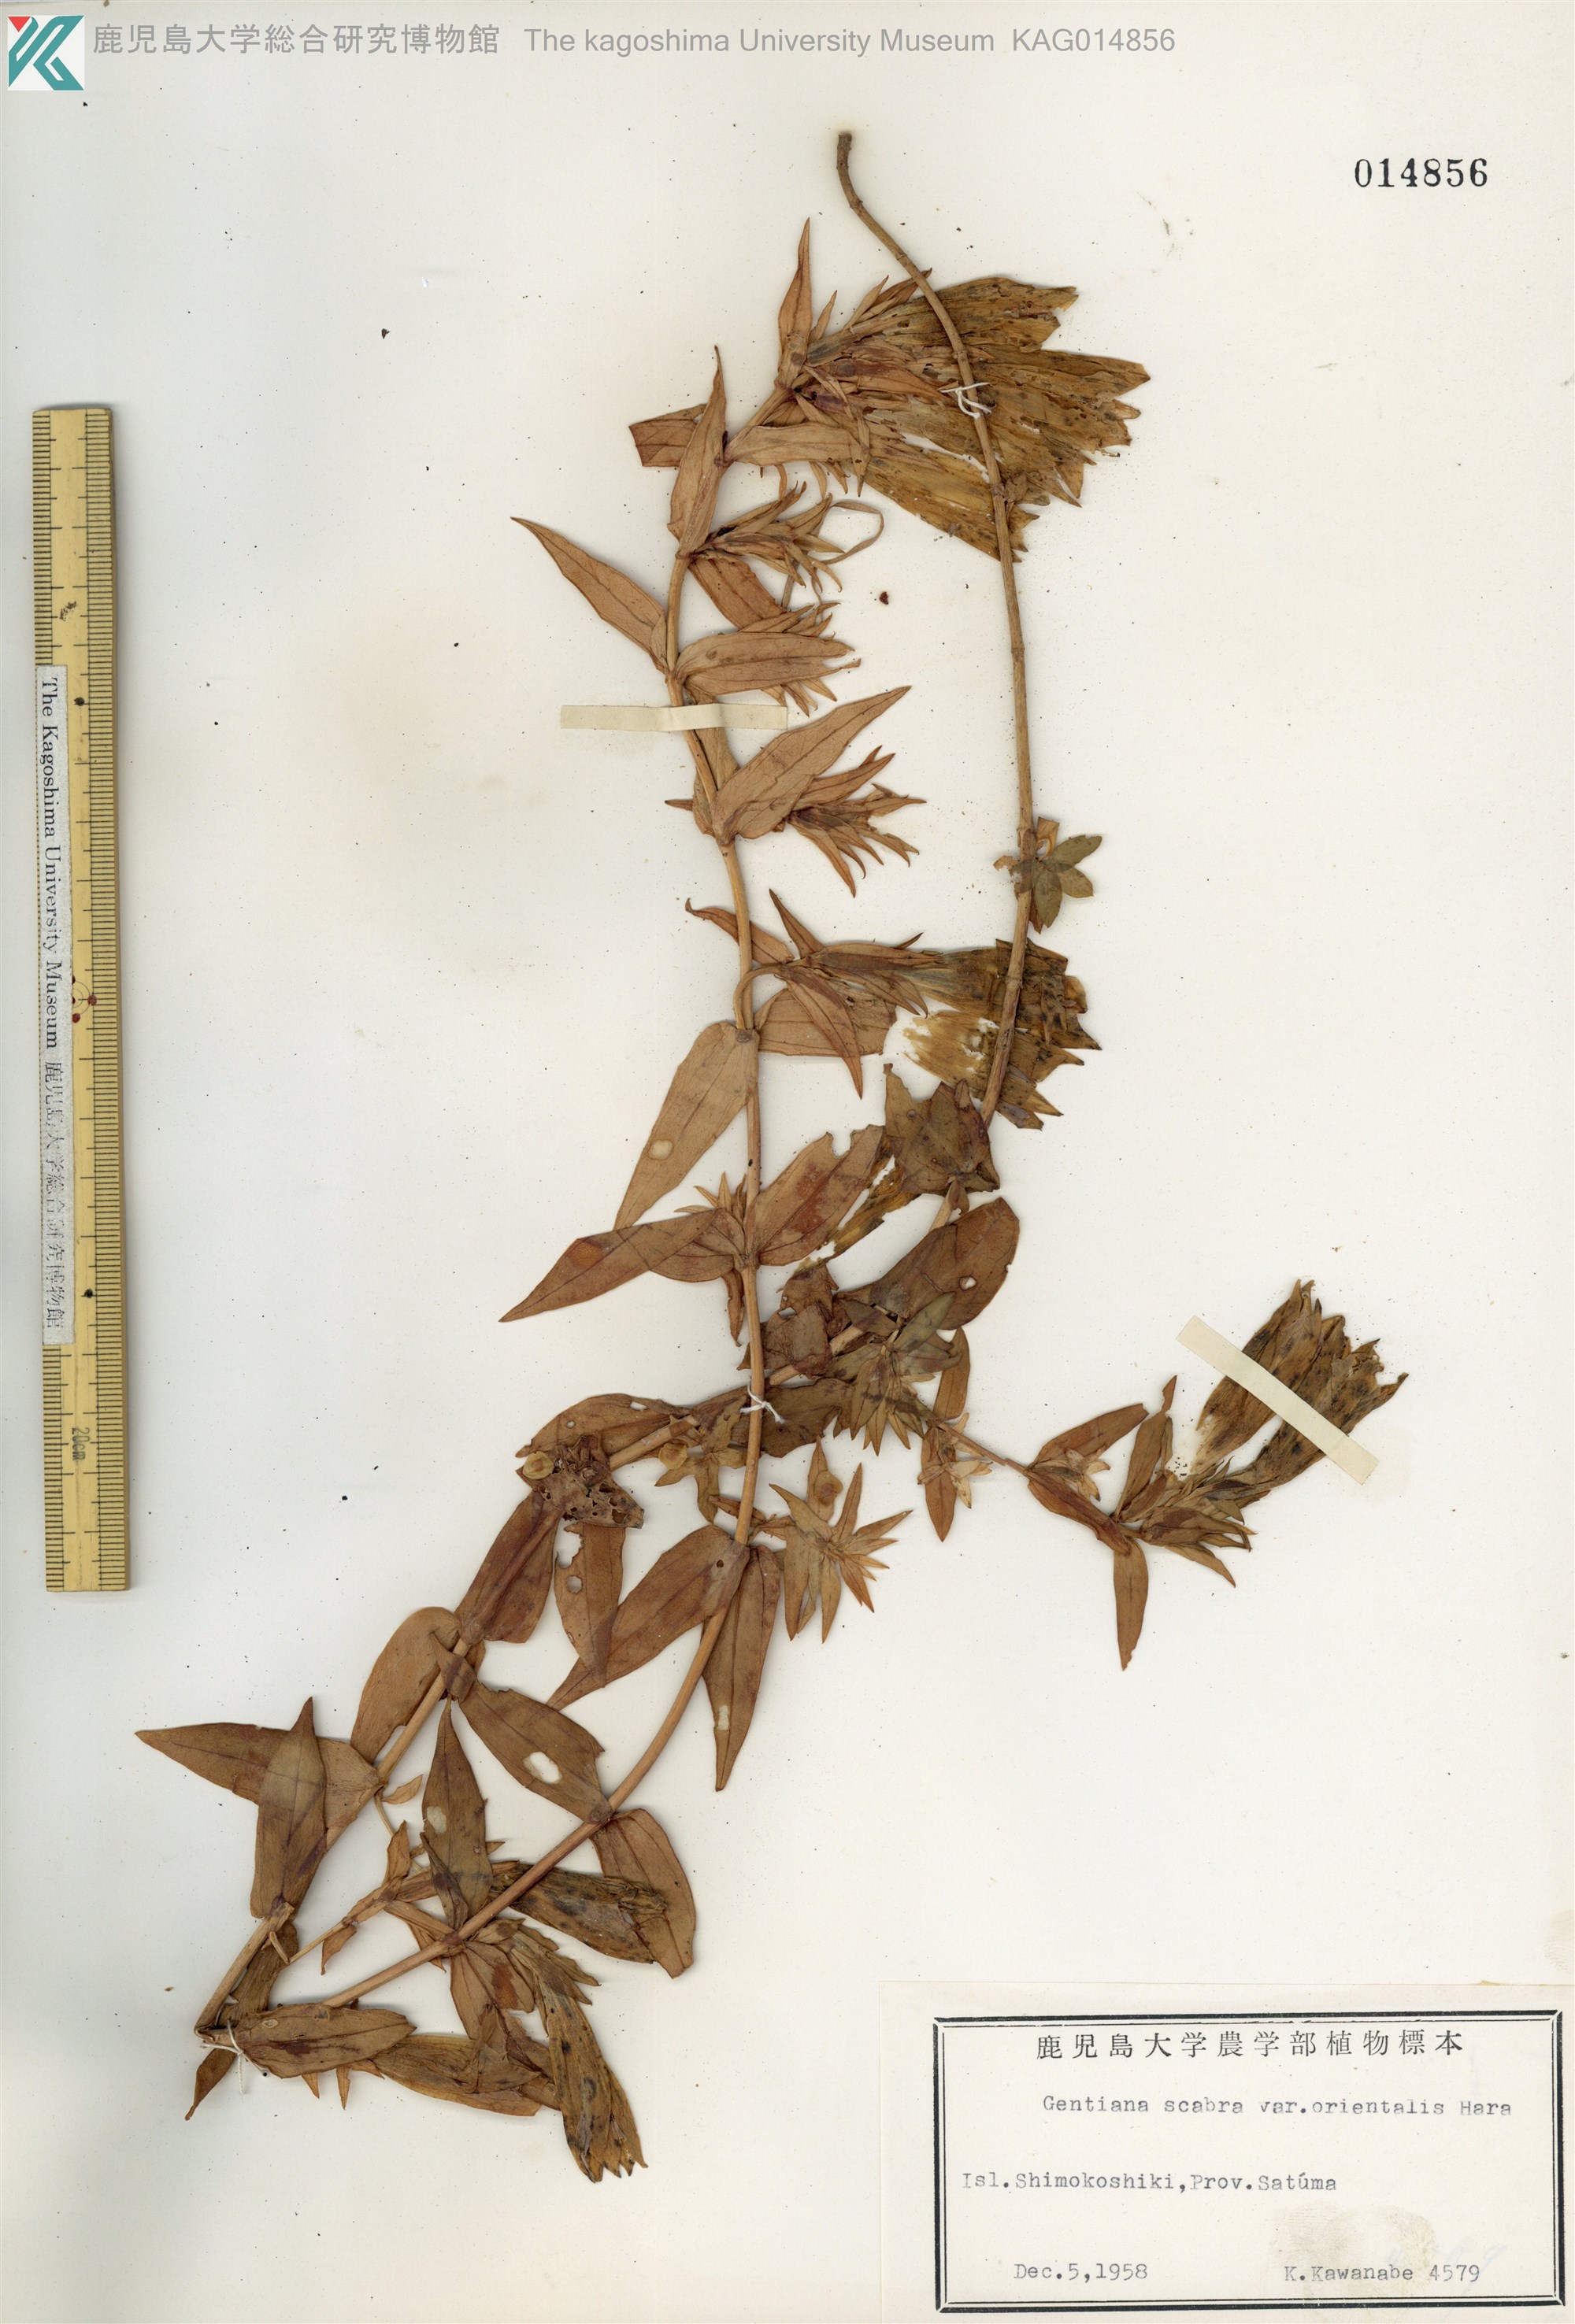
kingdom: Plantae
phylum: Tracheophyta
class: Magnoliopsida
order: Gentianales
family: Gentianaceae
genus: Gentiana
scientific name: Gentiana scabra
